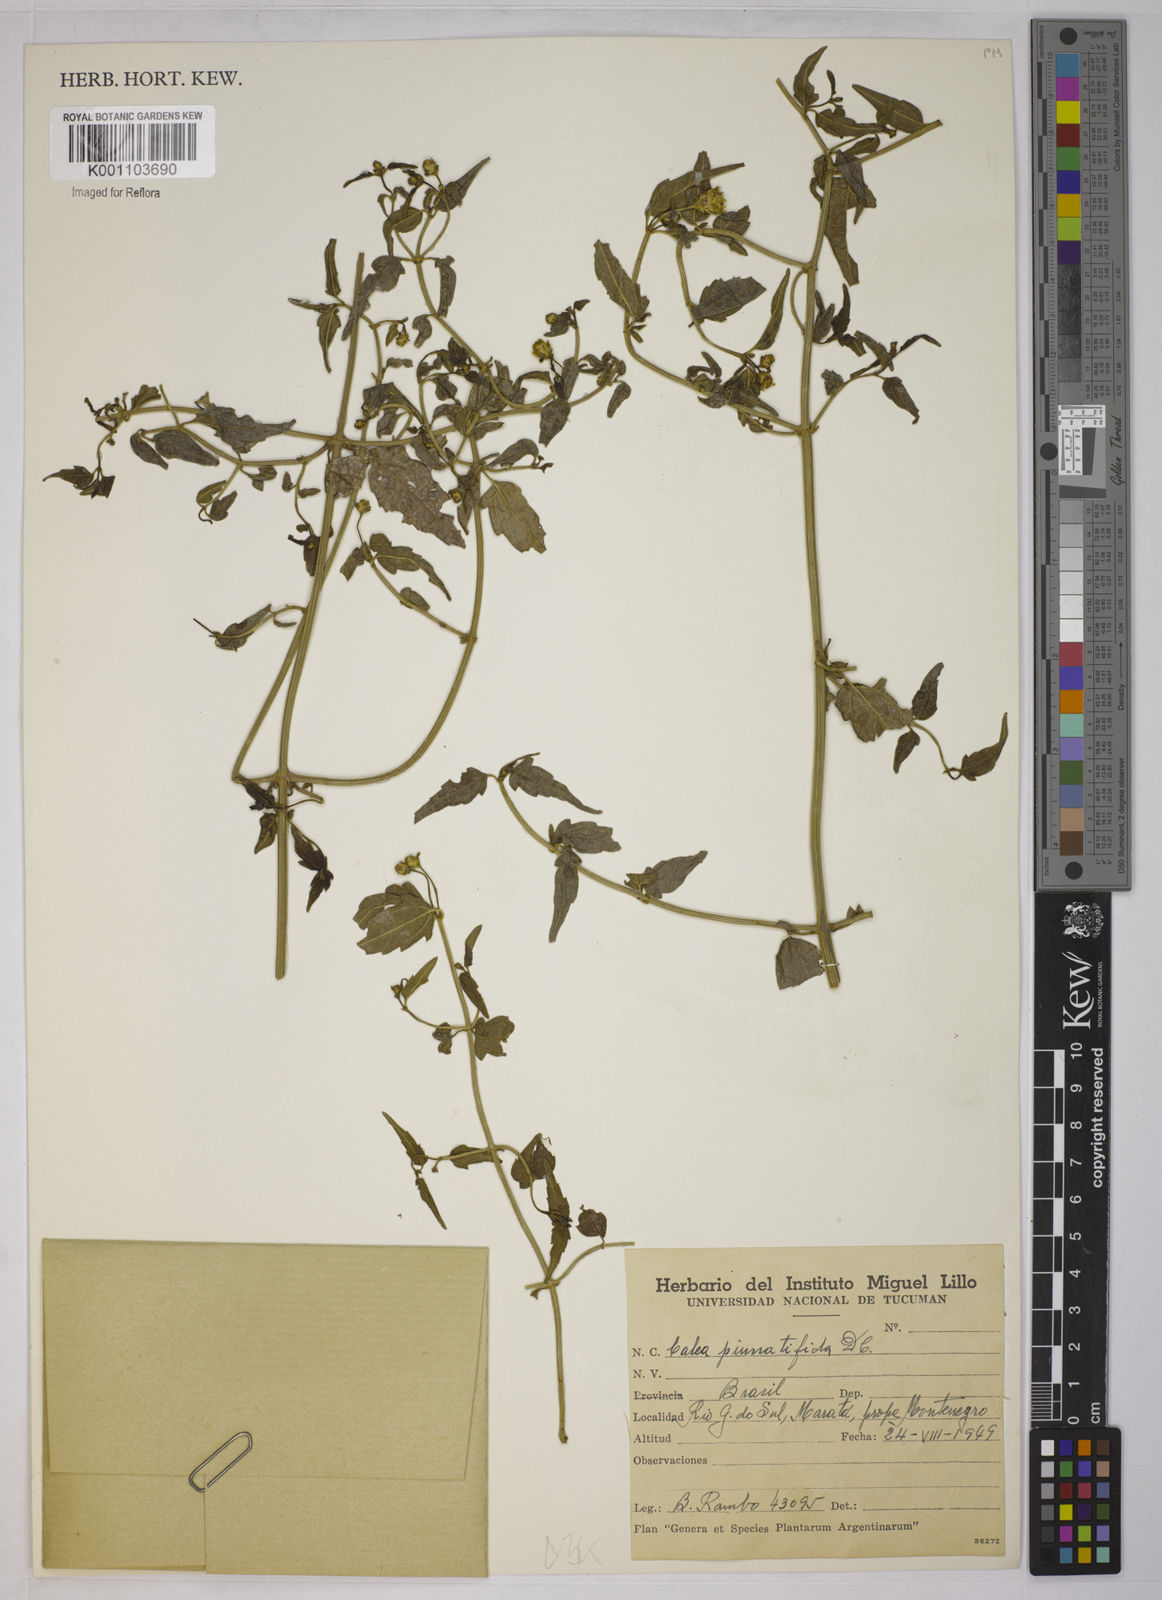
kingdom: Plantae
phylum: Tracheophyta
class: Magnoliopsida
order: Asterales
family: Asteraceae
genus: Calea
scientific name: Calea
